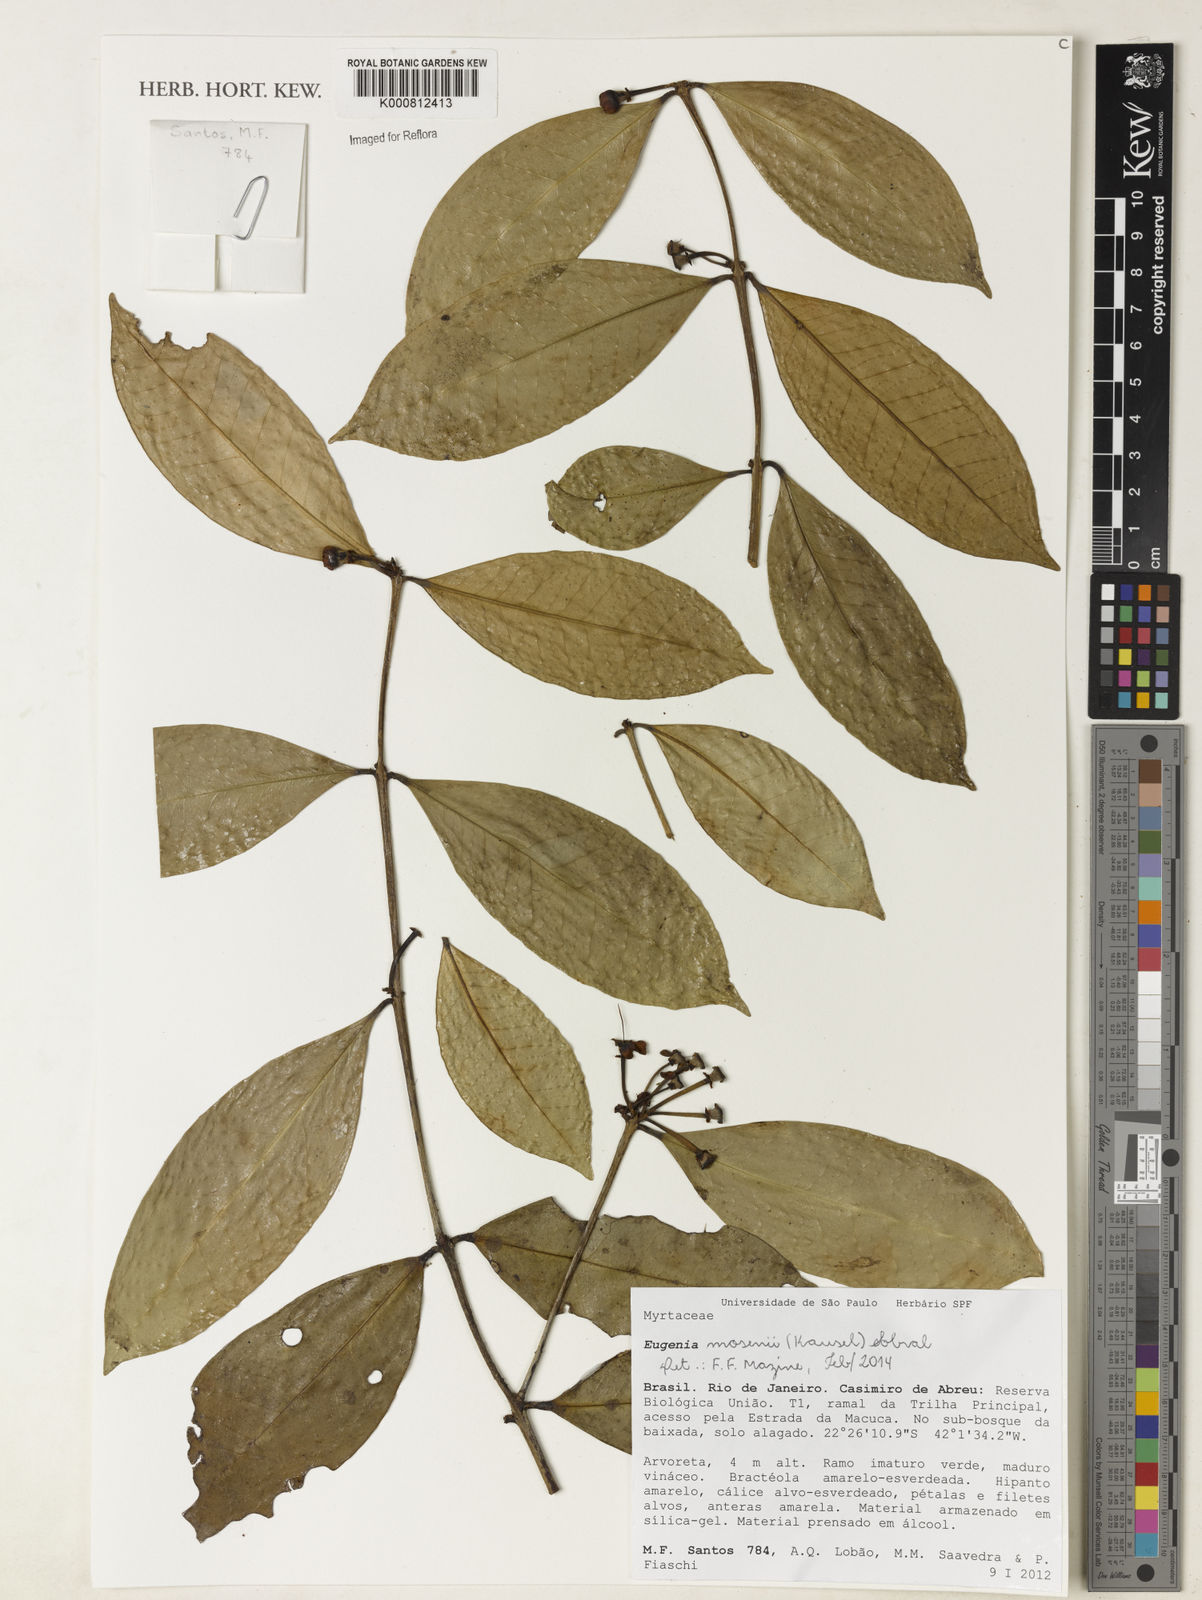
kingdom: Plantae
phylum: Tracheophyta
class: Magnoliopsida
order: Myrtales
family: Myrtaceae
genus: Eugenia
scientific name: Eugenia mosenii
